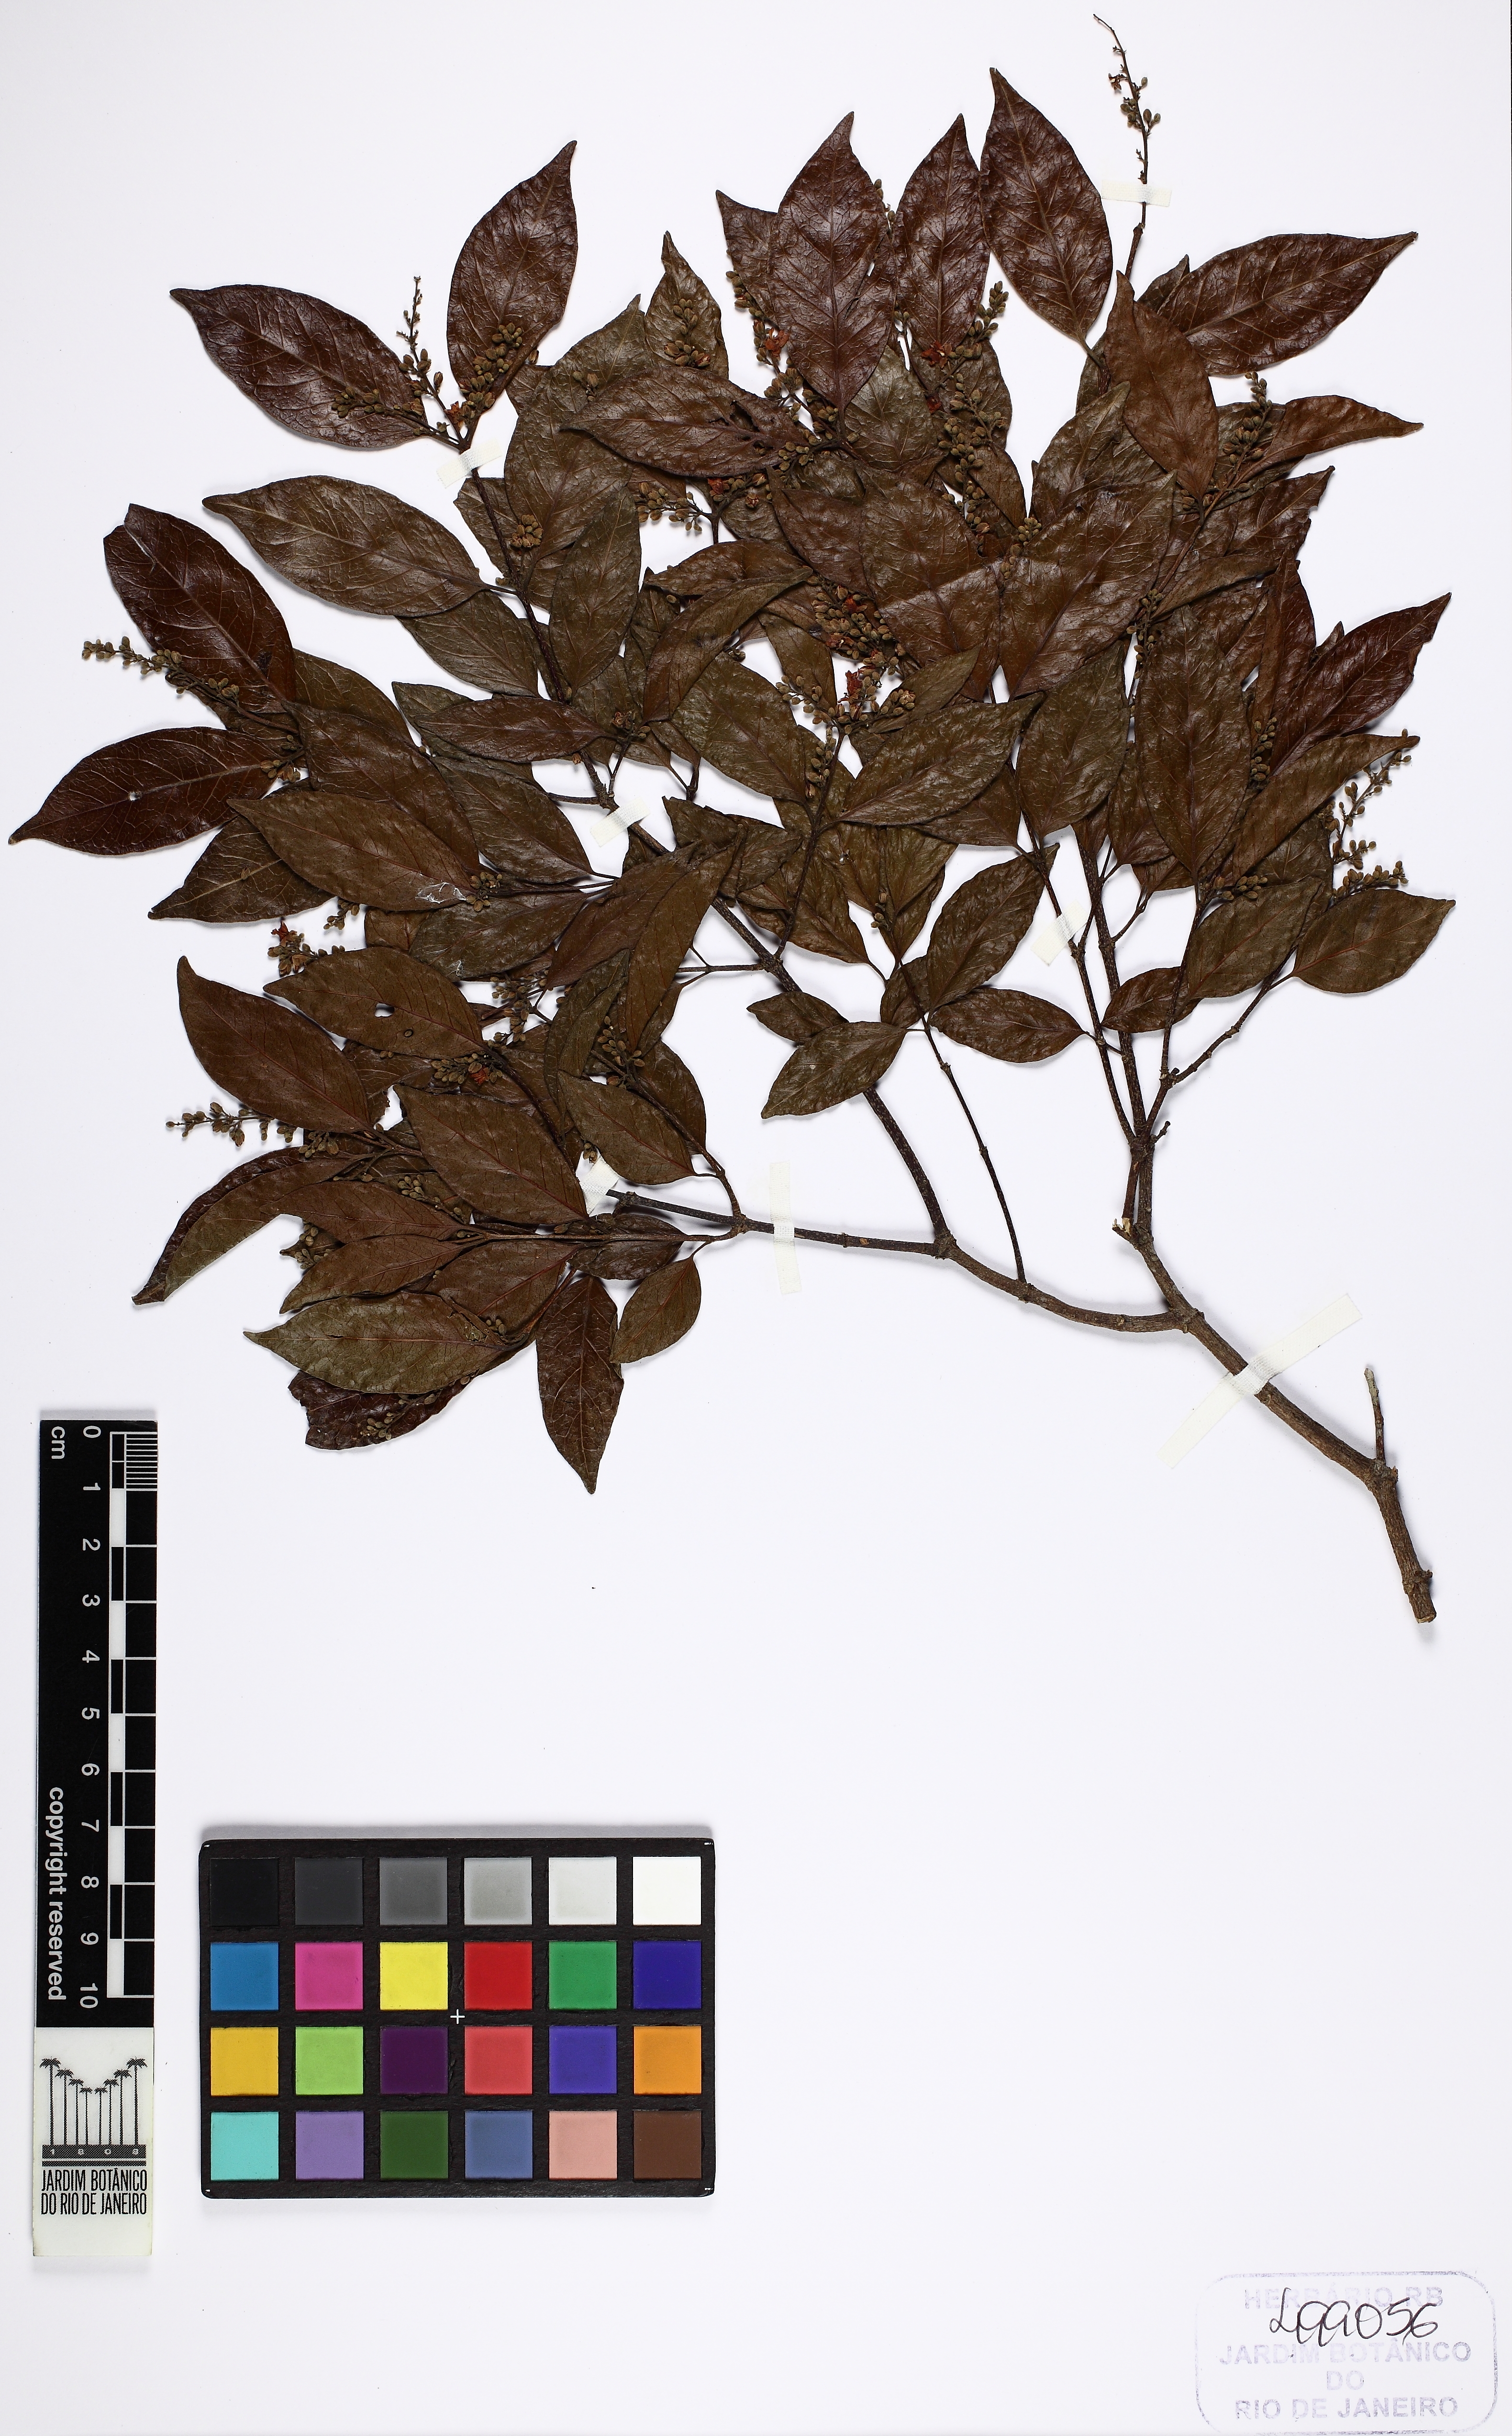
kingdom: Plantae
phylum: Tracheophyta
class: Magnoliopsida
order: Malpighiales
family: Trigoniaceae
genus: Trigonia
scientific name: Trigonia eriosperma
